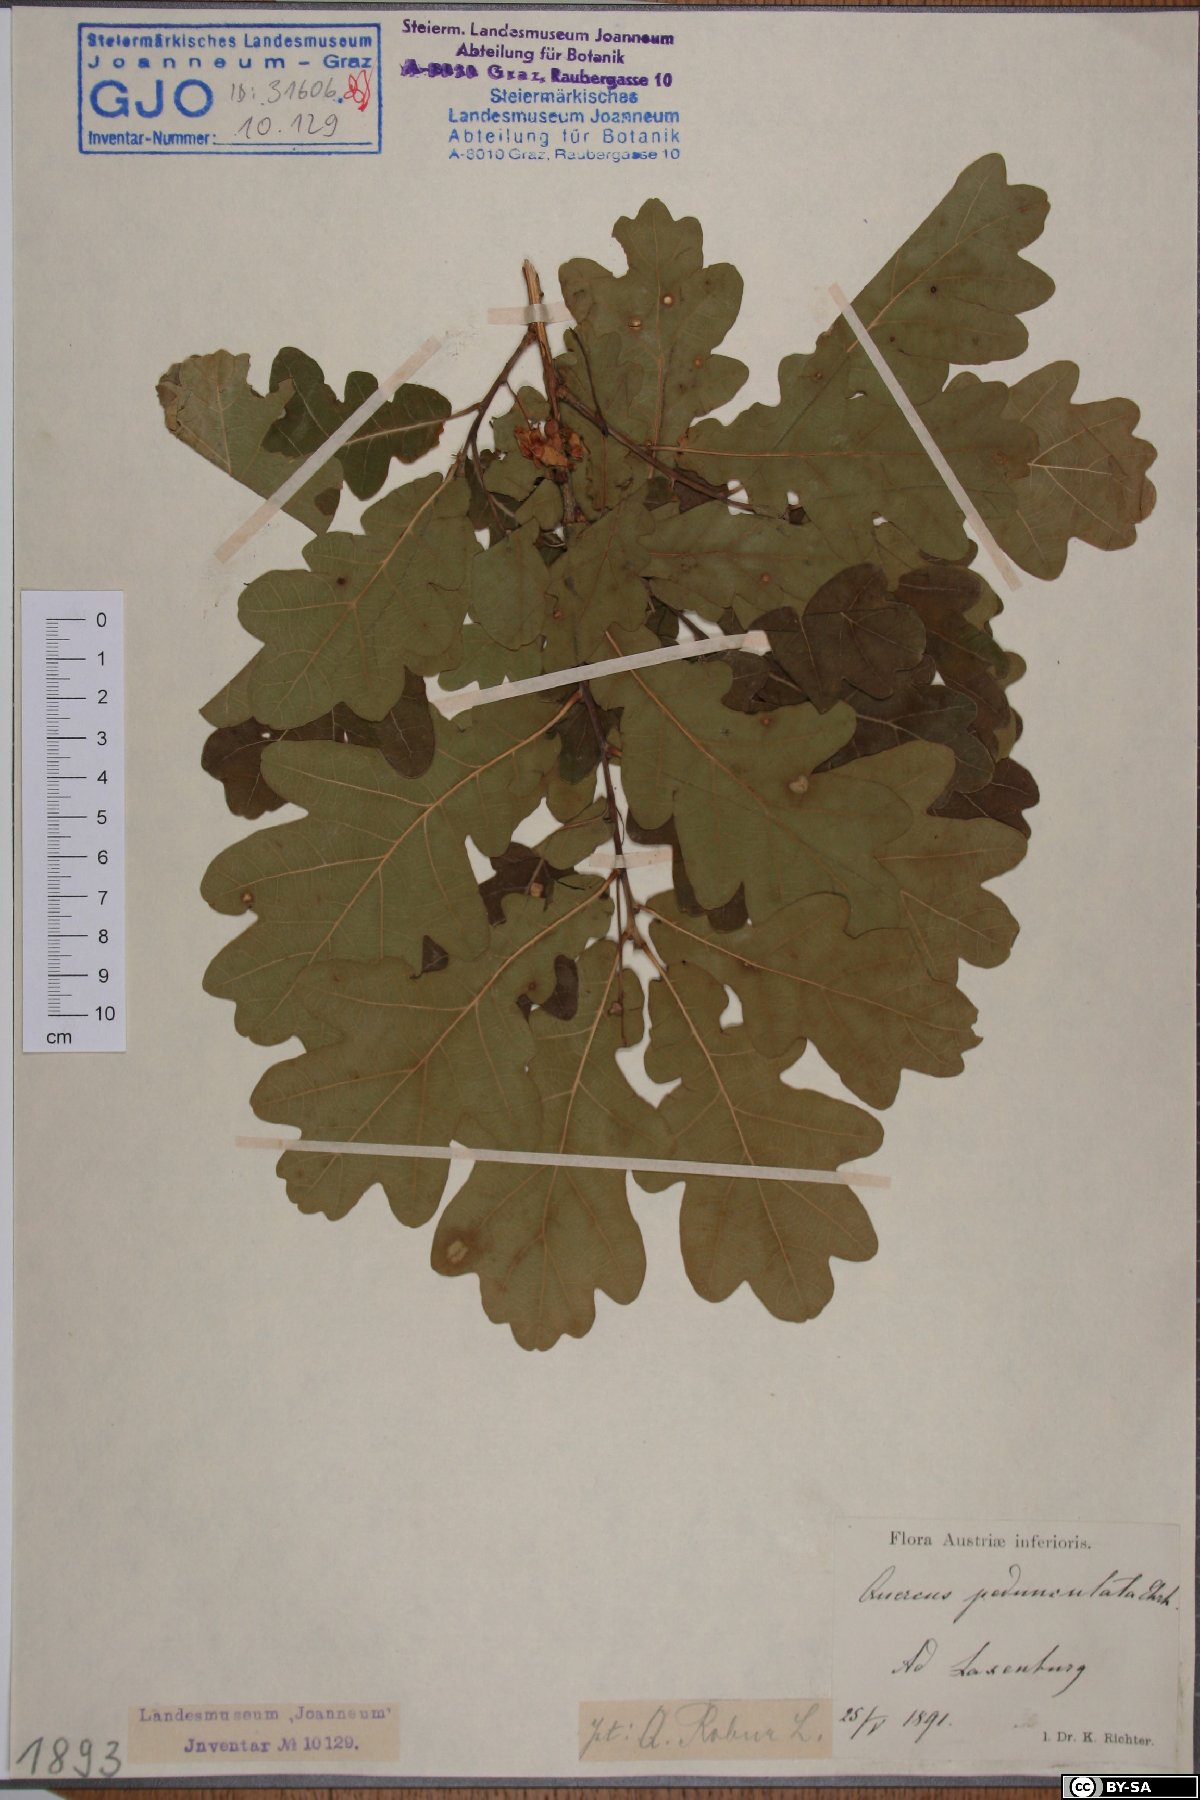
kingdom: Plantae
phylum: Tracheophyta
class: Magnoliopsida
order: Fagales
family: Fagaceae
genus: Quercus
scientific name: Quercus robur
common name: Pedunculate oak
